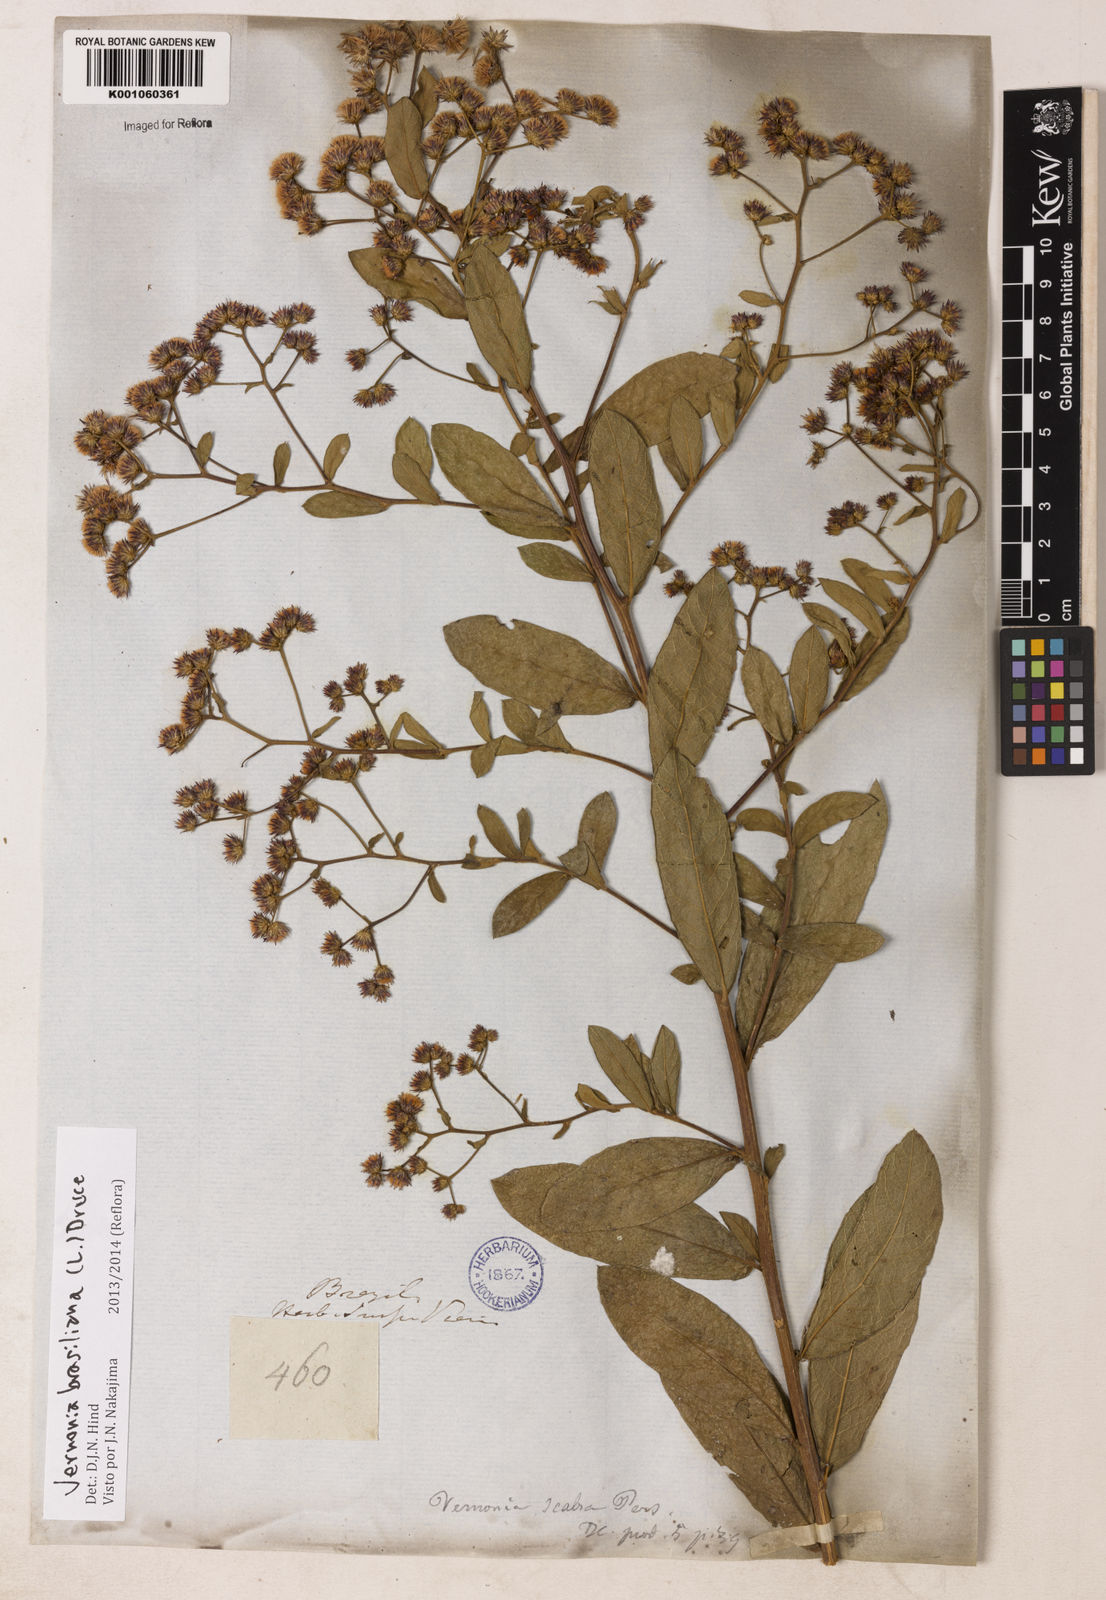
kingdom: Plantae
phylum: Tracheophyta
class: Magnoliopsida
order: Asterales
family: Asteraceae
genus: Vernonanthura
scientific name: Vernonanthura brasiliana
